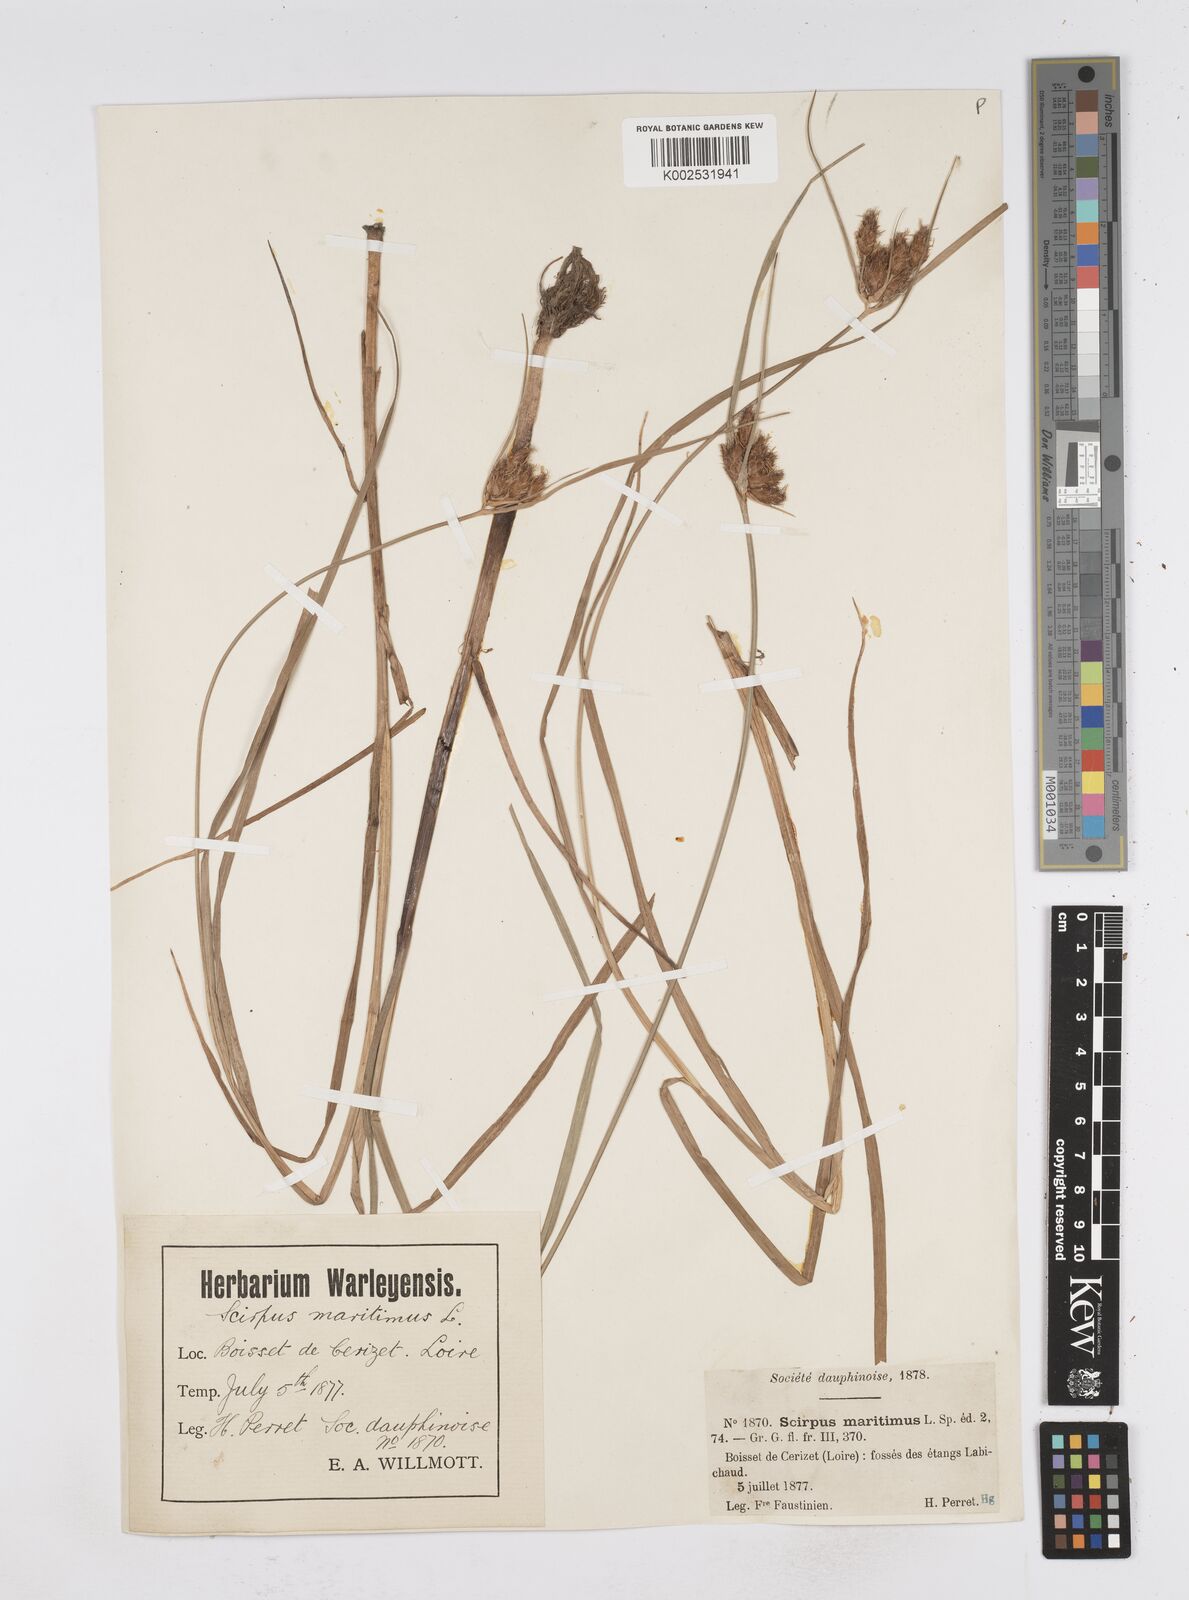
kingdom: Plantae
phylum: Tracheophyta
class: Liliopsida
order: Poales
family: Cyperaceae
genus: Bolboschoenus
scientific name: Bolboschoenus maritimus
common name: Sea club-rush
